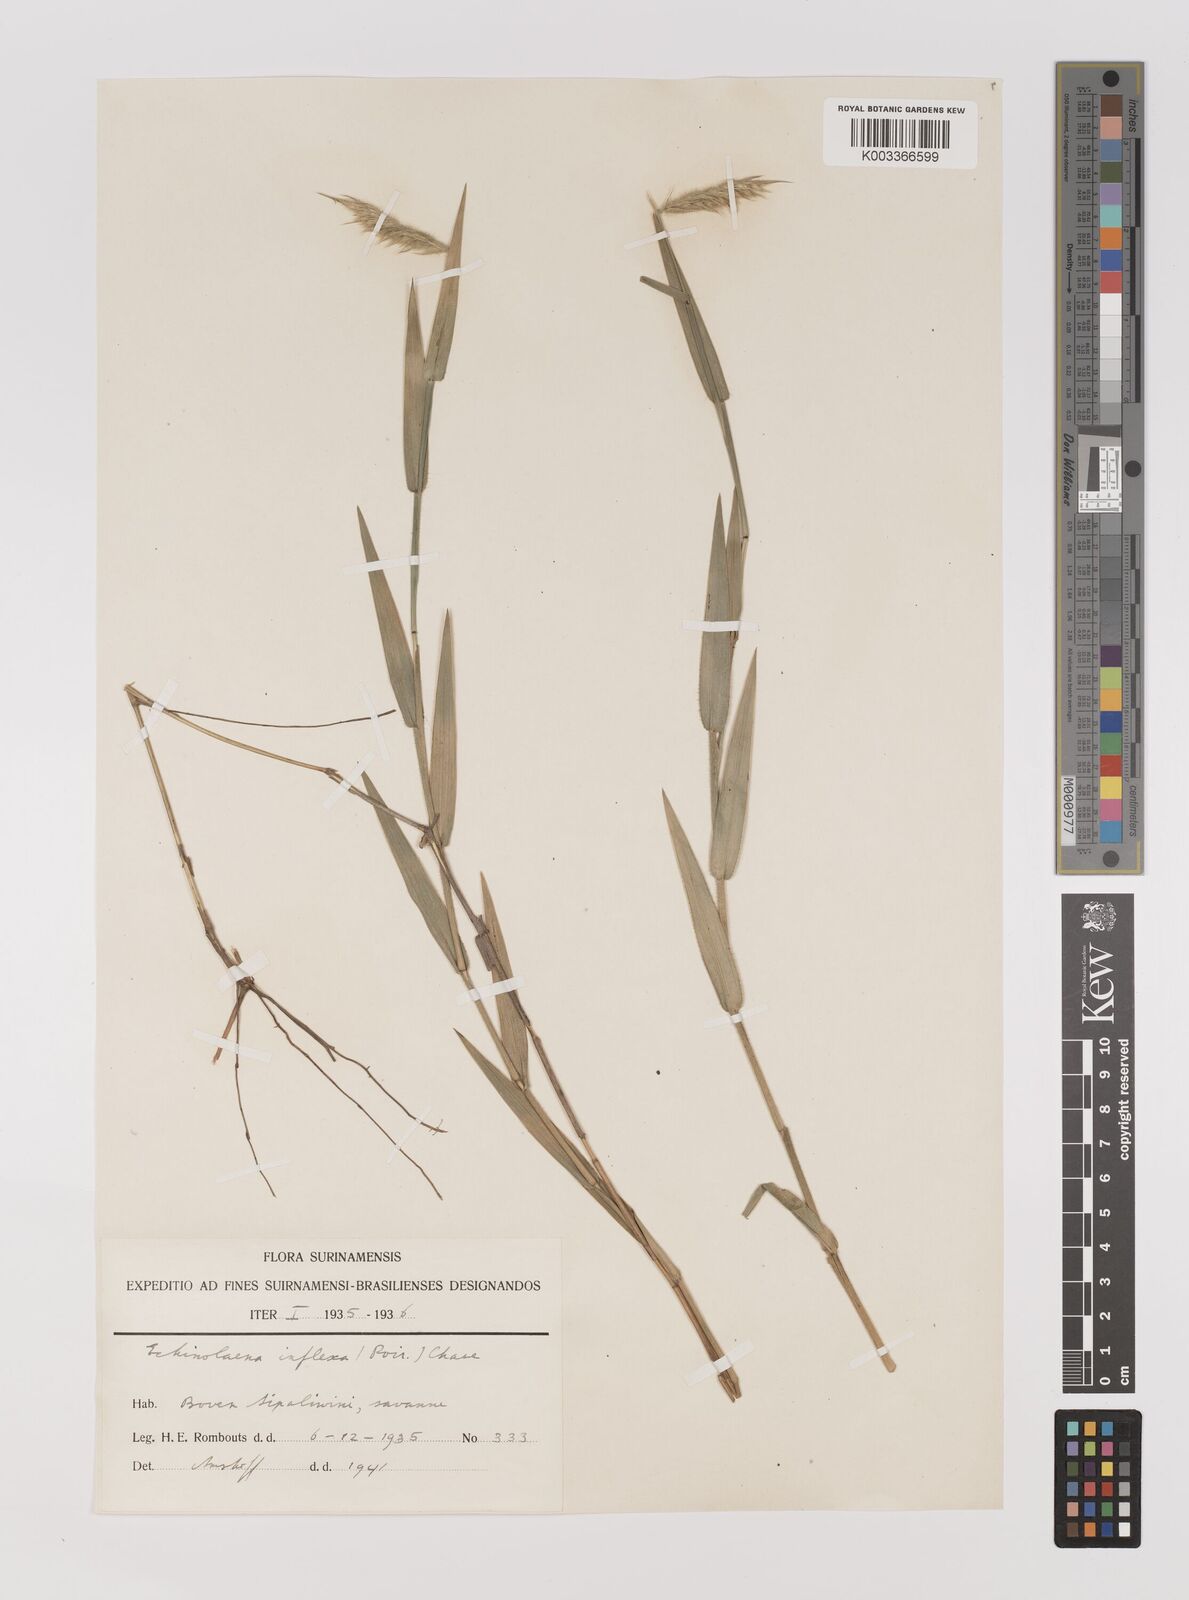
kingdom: Plantae
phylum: Tracheophyta
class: Liliopsida
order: Poales
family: Poaceae
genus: Echinolaena
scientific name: Echinolaena inflexa
